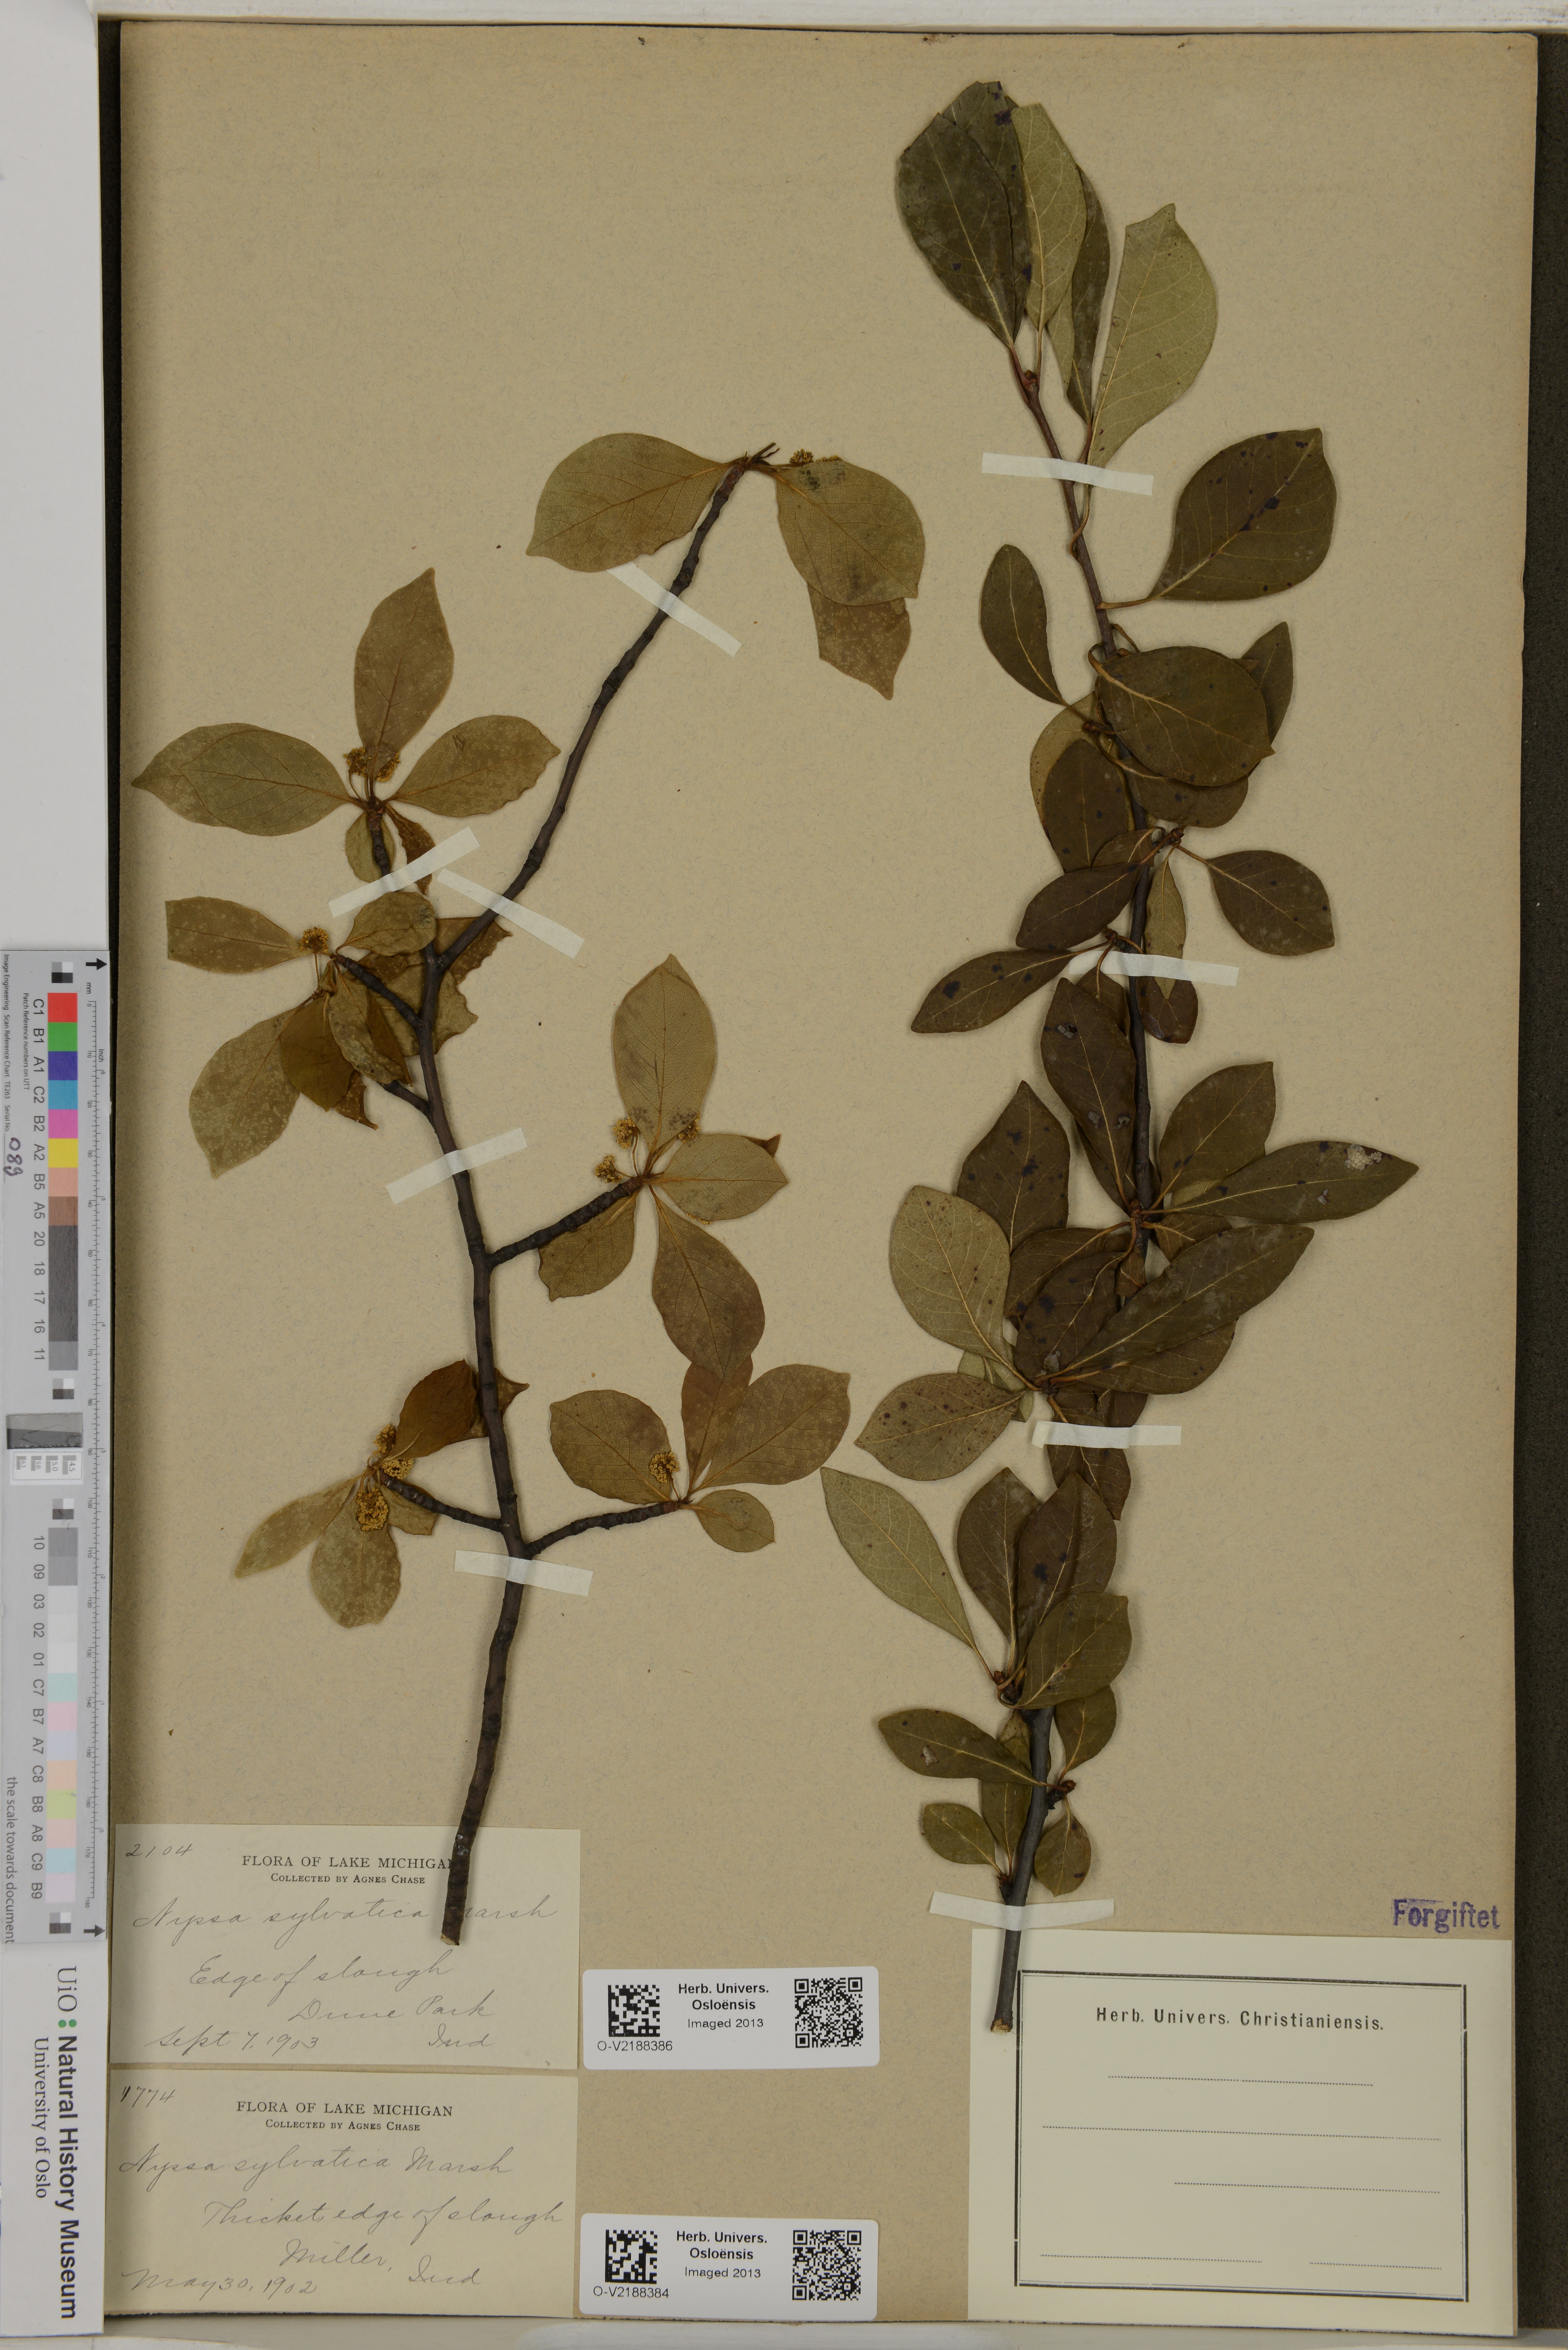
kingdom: Animalia
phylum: Cnidaria
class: Anthozoa
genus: Aspera
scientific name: Aspera
